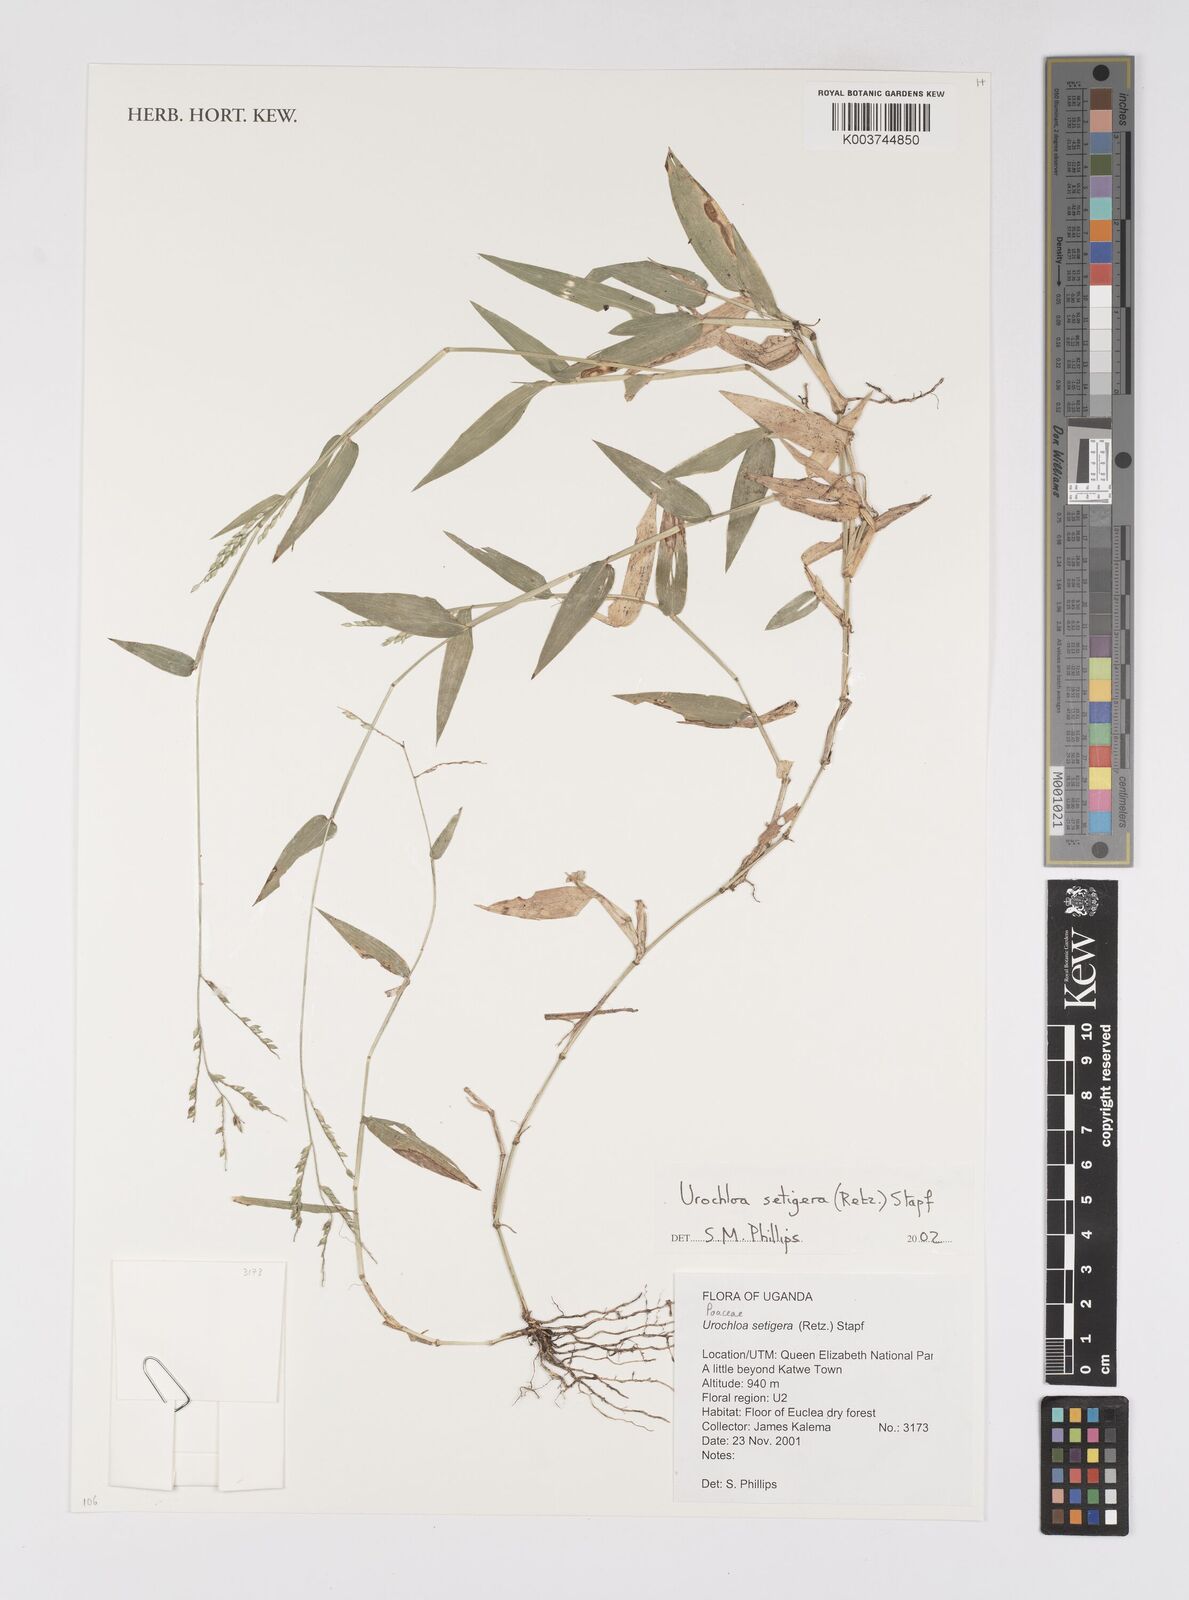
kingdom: Plantae
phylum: Tracheophyta
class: Liliopsida
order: Poales
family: Poaceae
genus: Urochloa
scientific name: Urochloa setigera
